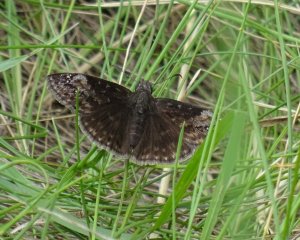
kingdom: Animalia
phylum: Arthropoda
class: Insecta
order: Lepidoptera
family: Hesperiidae
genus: Gesta
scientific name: Gesta
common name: Wild Indigo Duskywing
